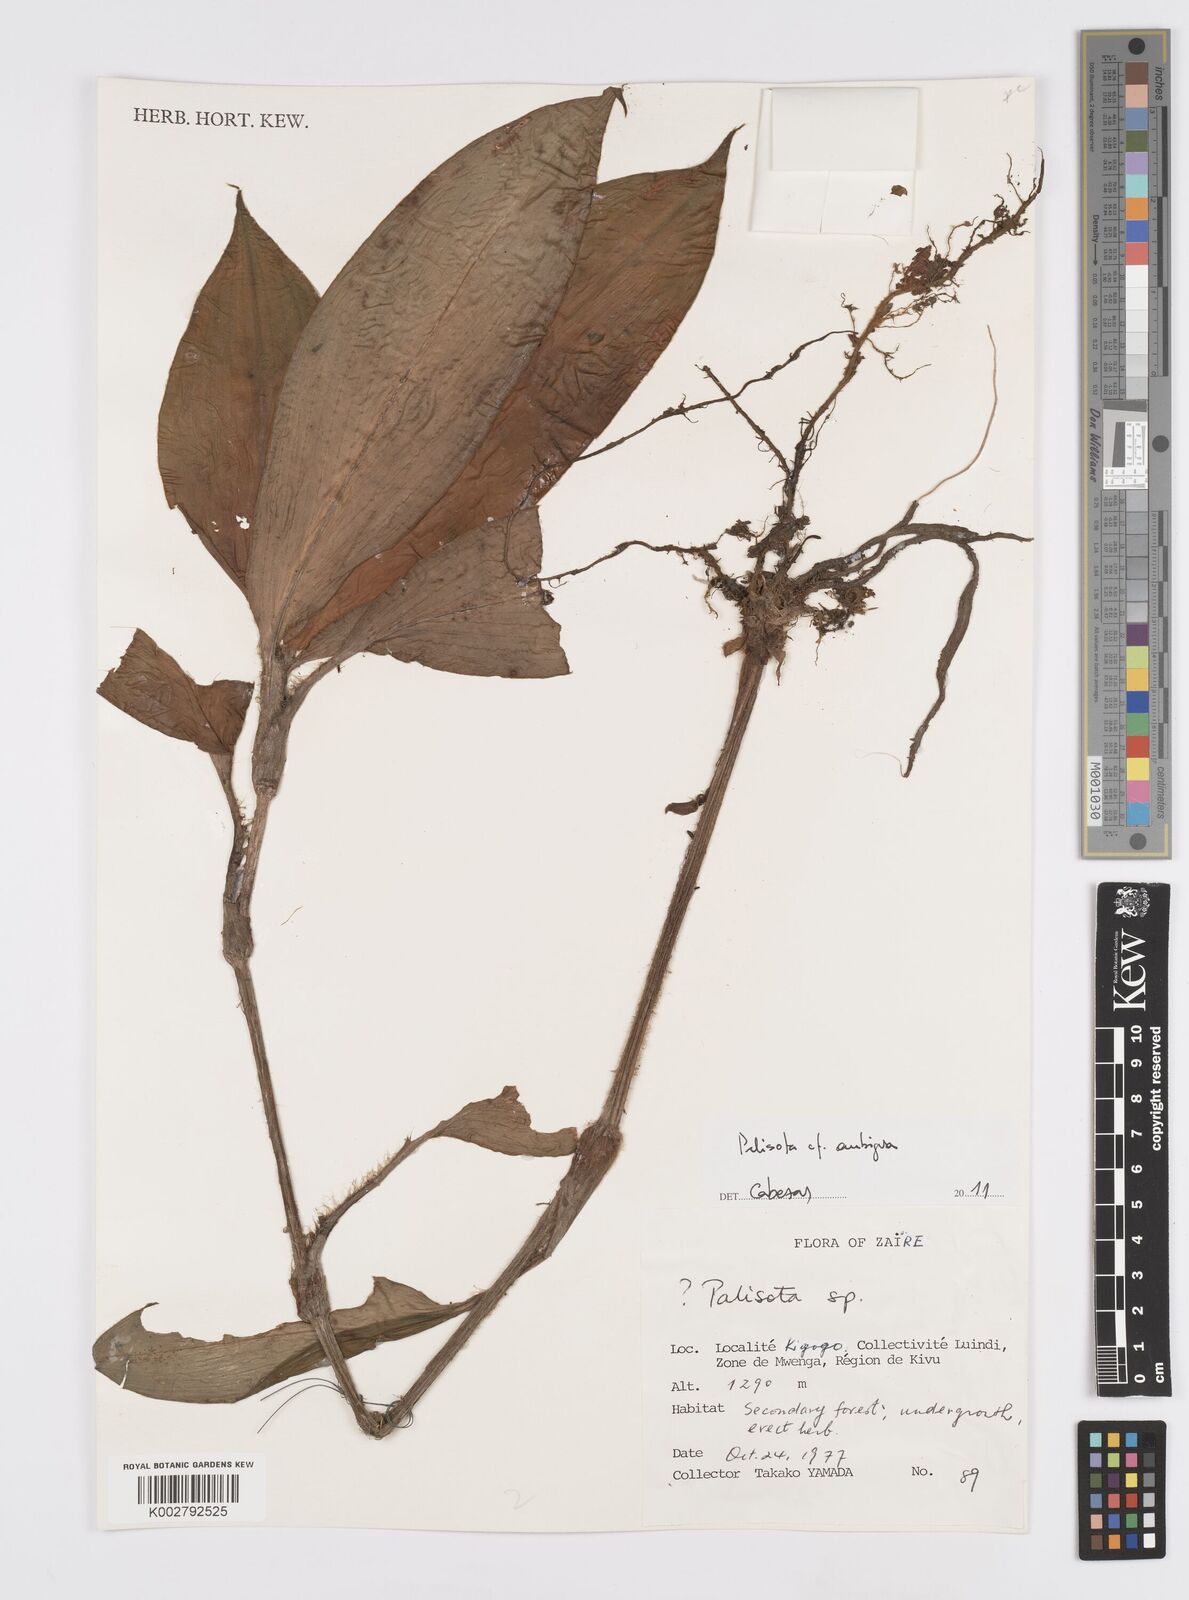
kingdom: Plantae
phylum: Tracheophyta
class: Liliopsida
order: Commelinales
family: Commelinaceae
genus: Palisota
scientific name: Palisota ambigua
